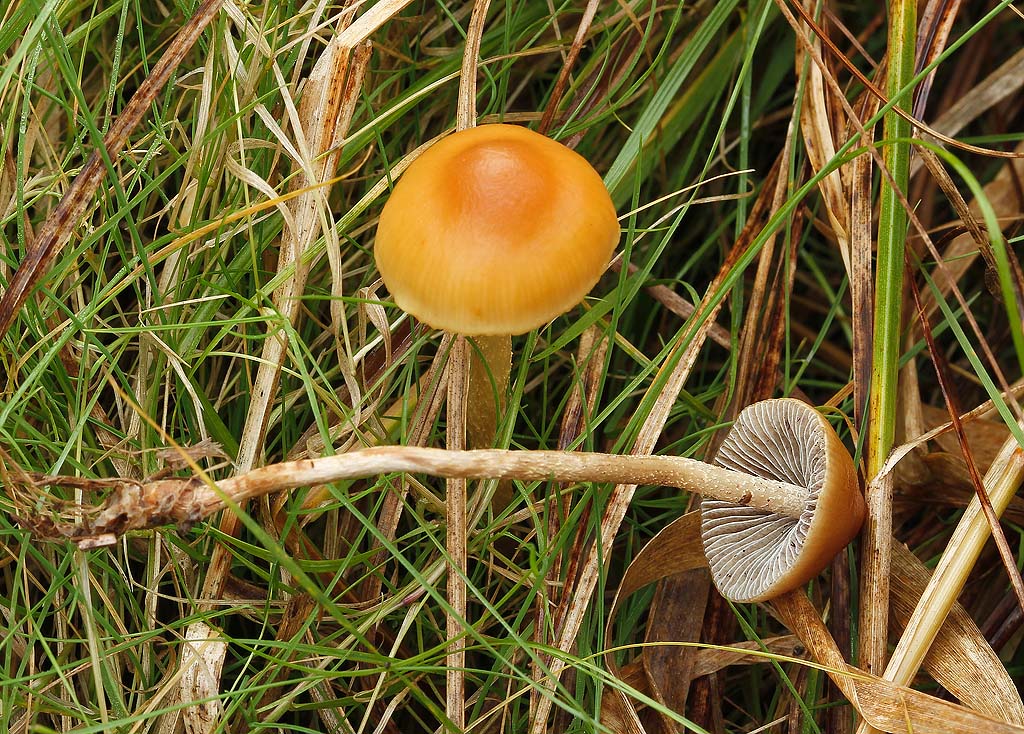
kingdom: Fungi
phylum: Basidiomycota
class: Agaricomycetes
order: Agaricales
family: Strophariaceae
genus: Hypholoma
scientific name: Hypholoma ericaeum
